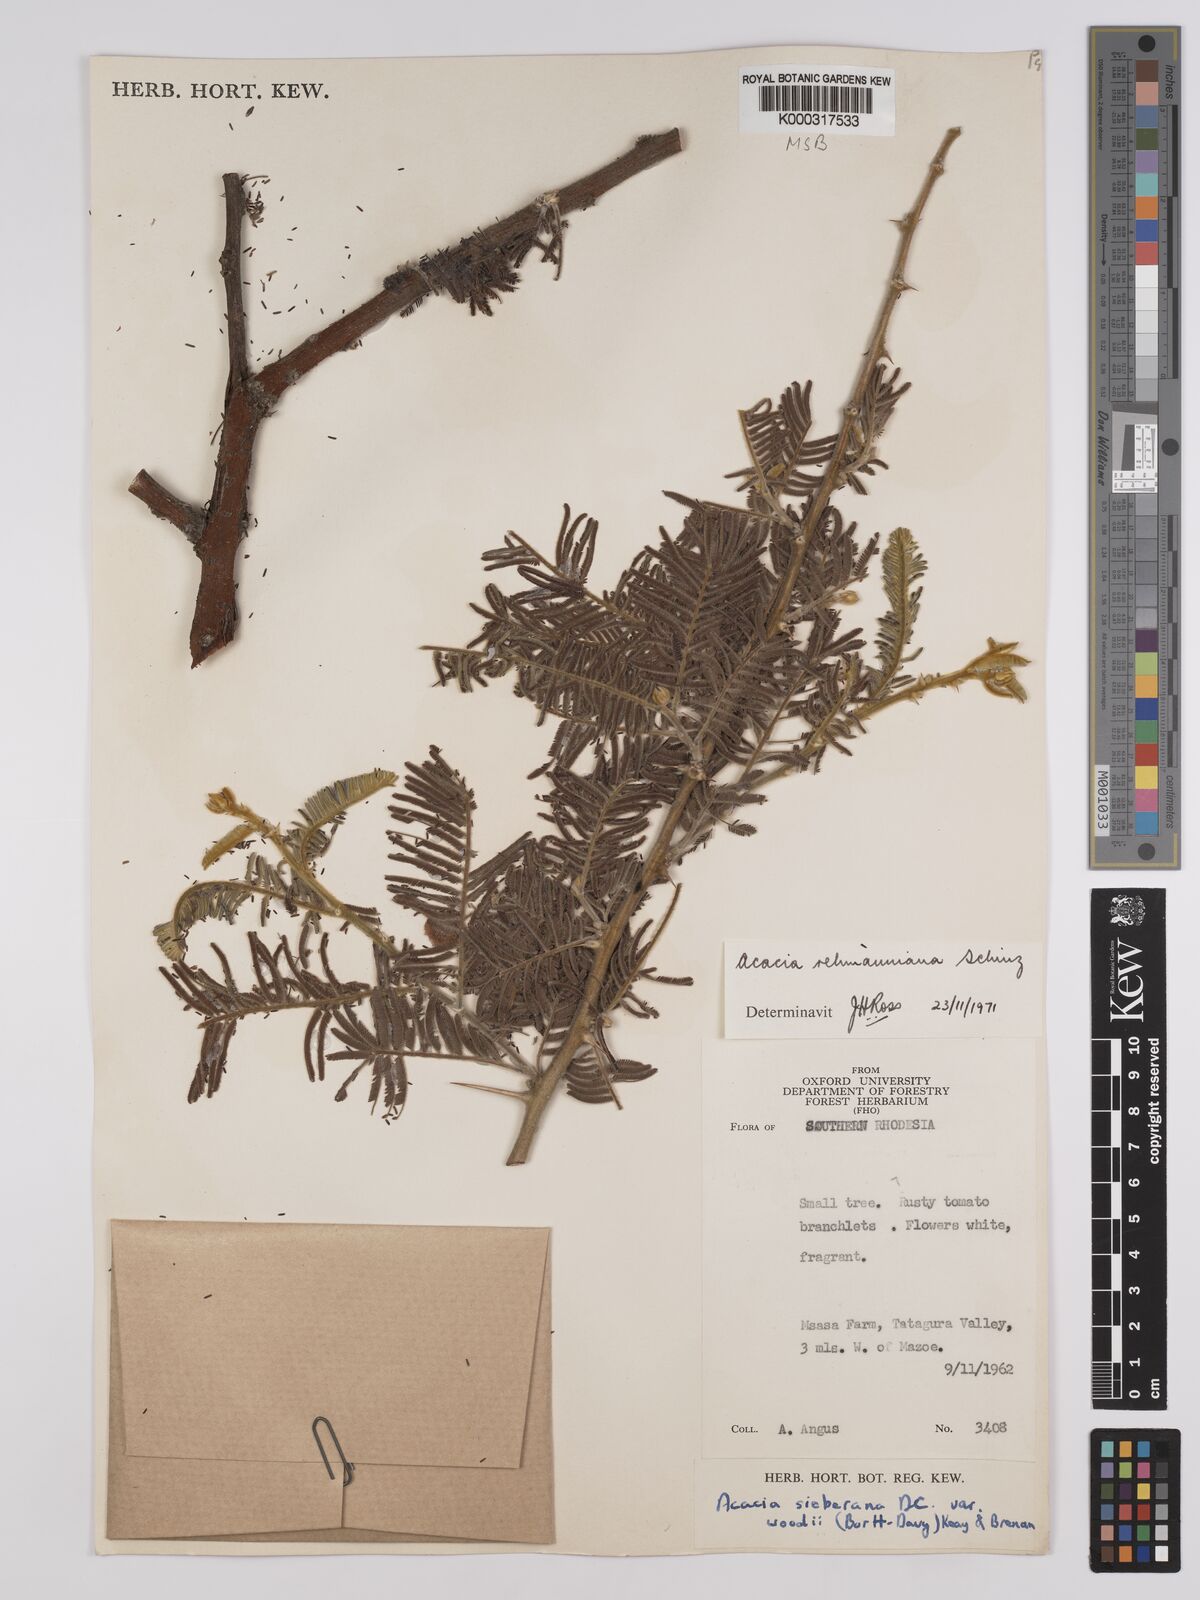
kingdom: Plantae
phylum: Tracheophyta
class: Magnoliopsida
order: Fabales
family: Fabaceae
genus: Vachellia
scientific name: Vachellia rehmanniana
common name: Silky thorn
